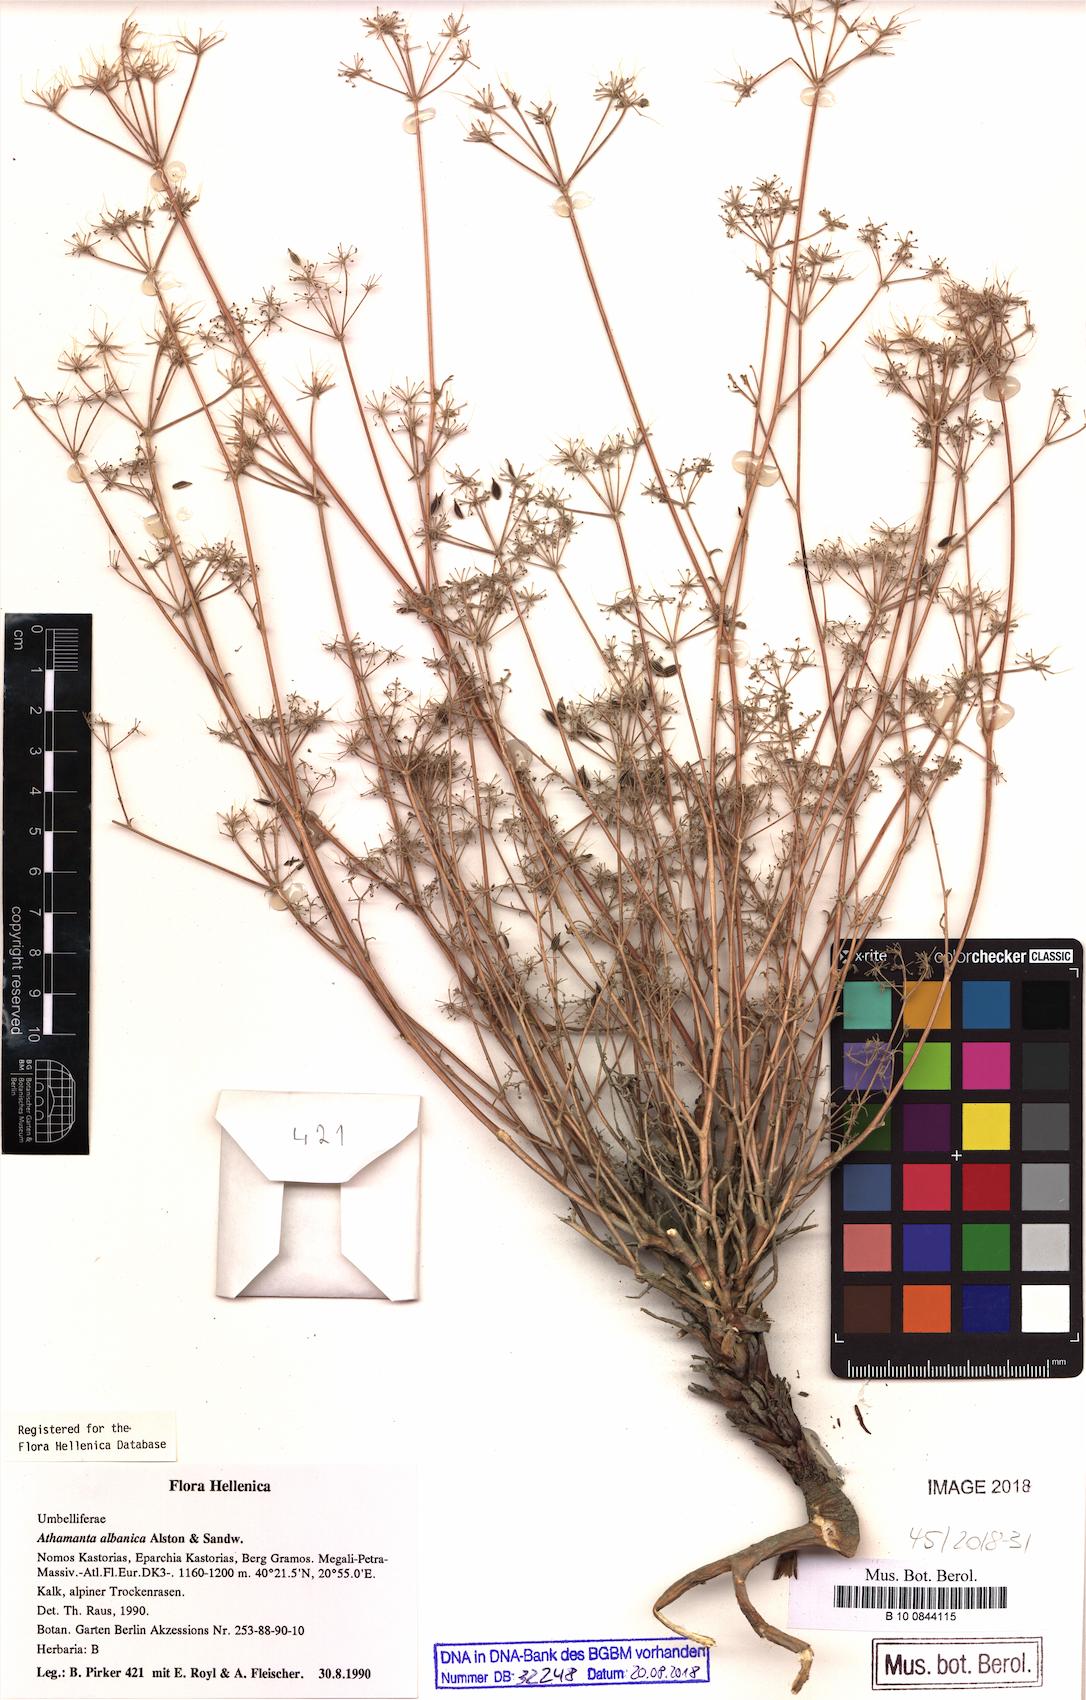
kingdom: Plantae
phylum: Tracheophyta
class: Magnoliopsida
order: Apiales
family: Apiaceae
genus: Bubon
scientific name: Bubon albanicum
